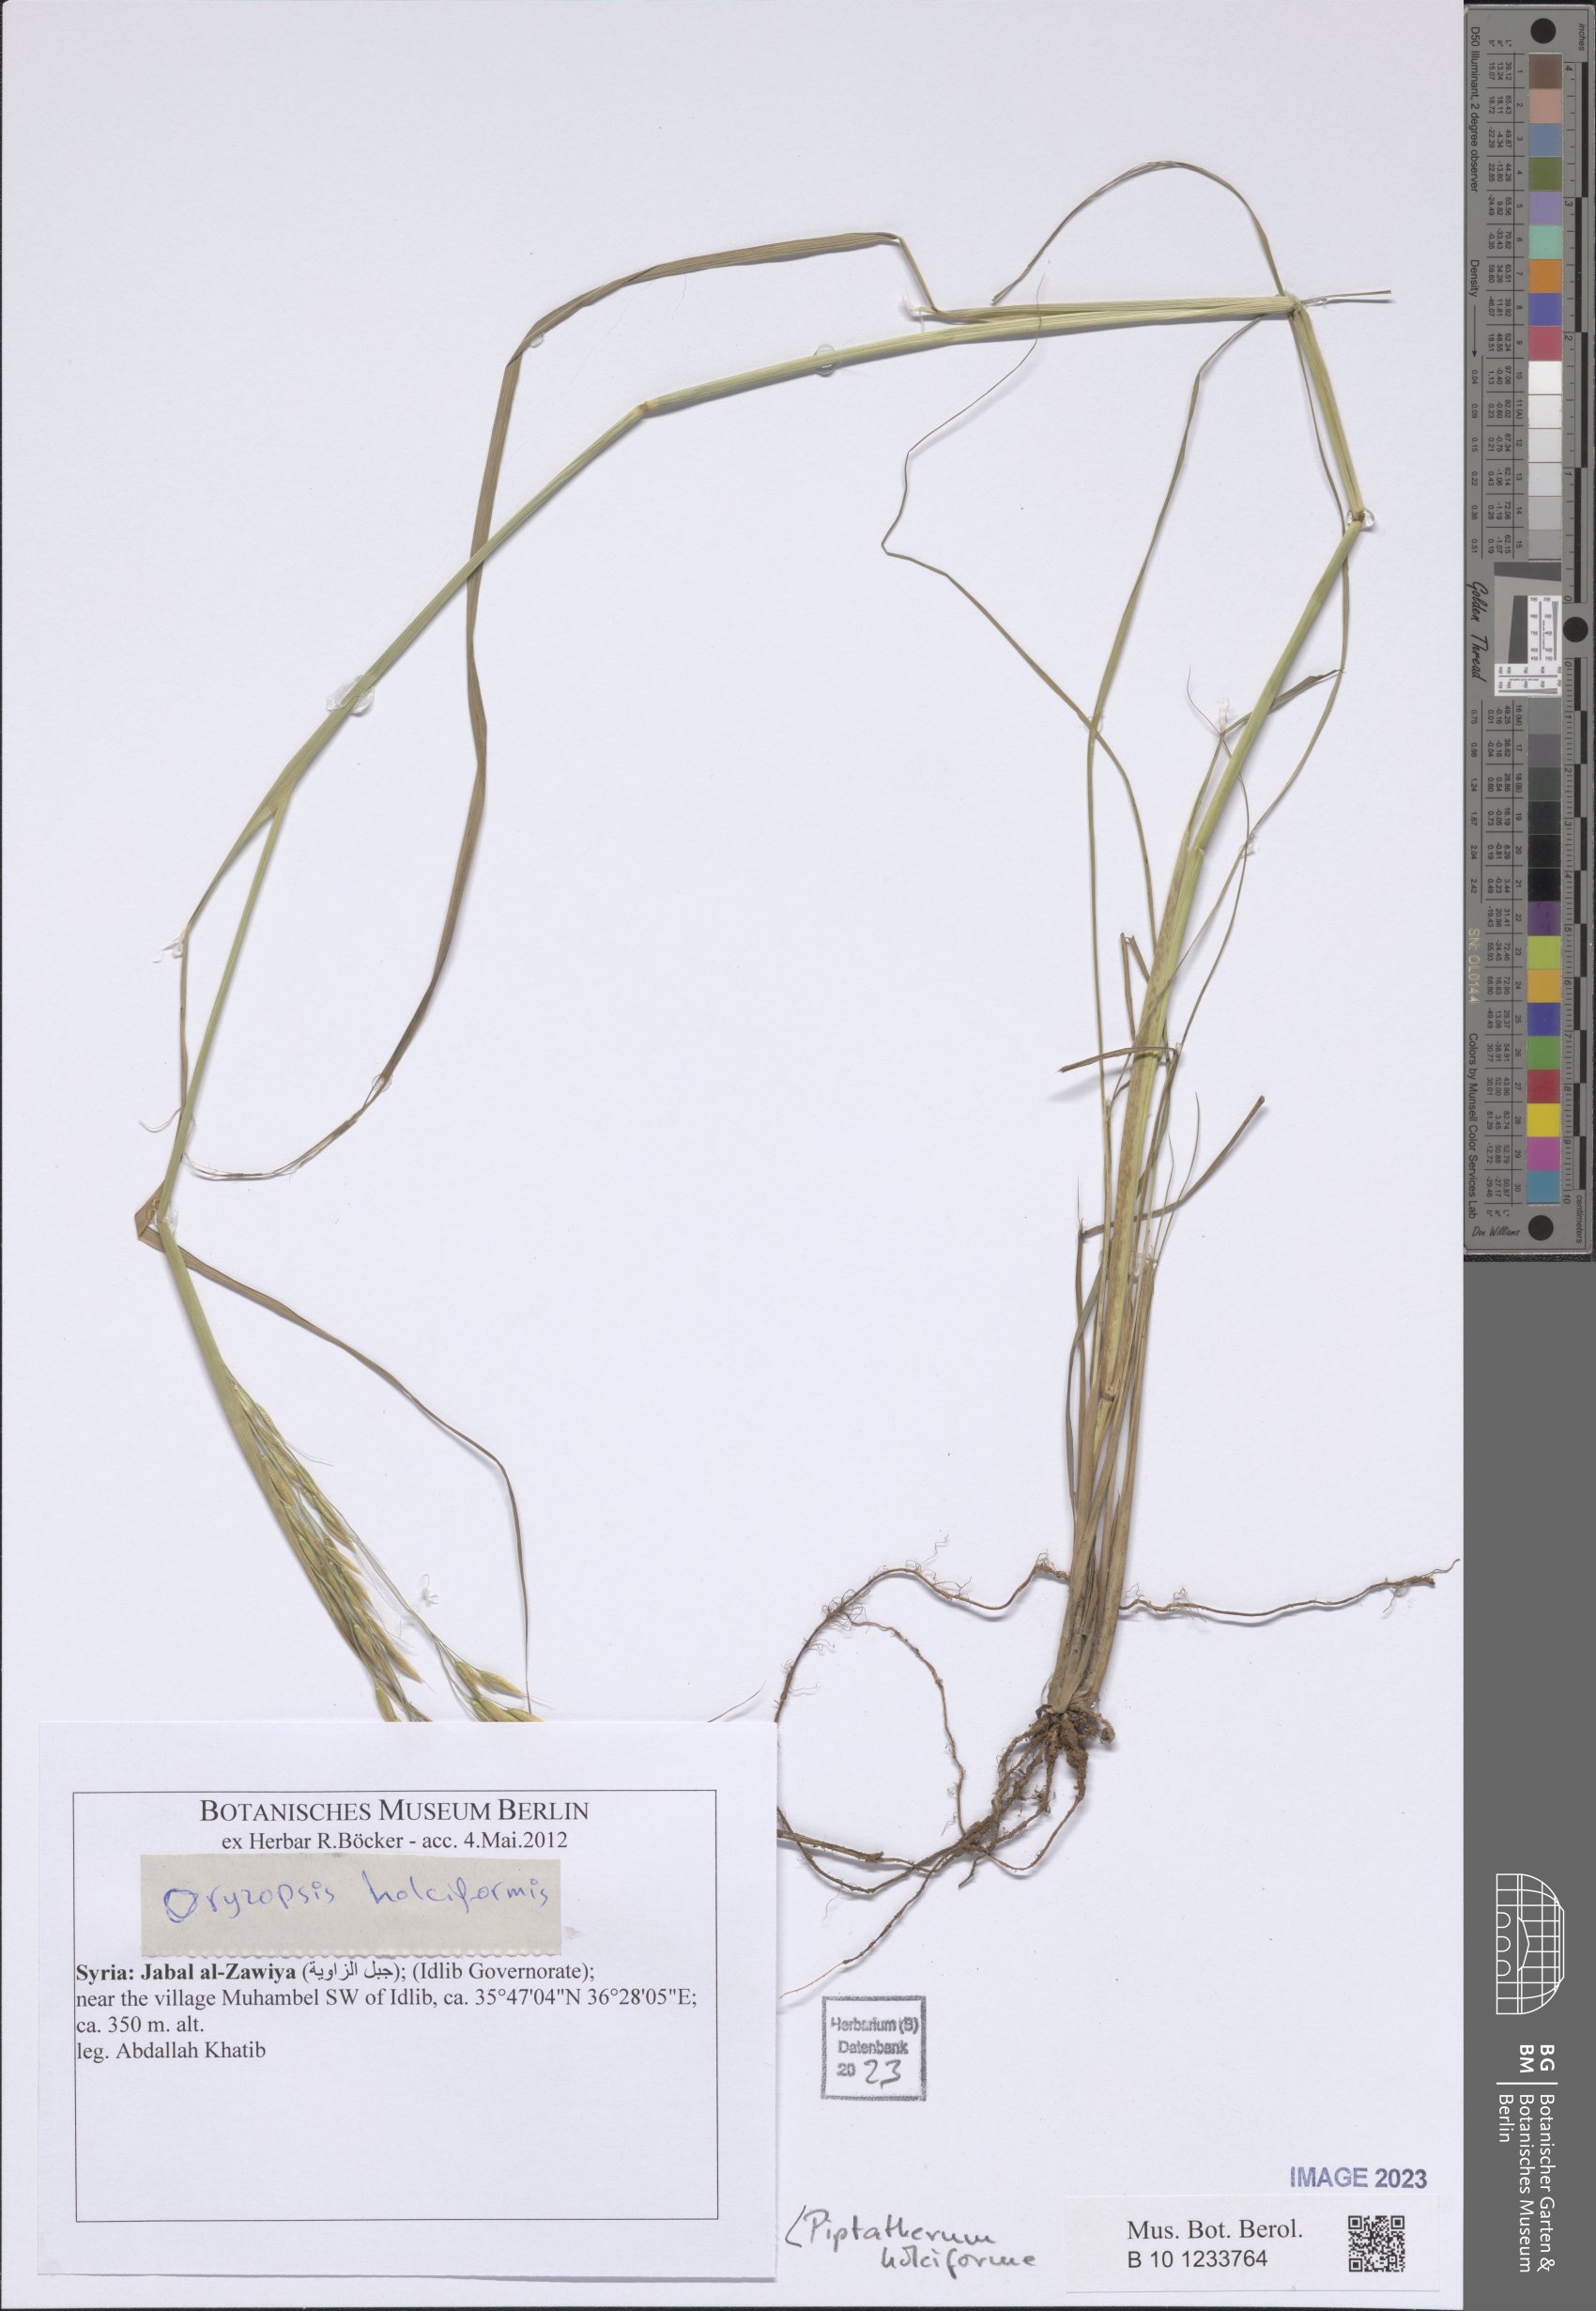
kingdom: Plantae
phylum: Tracheophyta
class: Liliopsida
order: Poales
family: Poaceae
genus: Piptatherum
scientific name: Piptatherum holciforme
